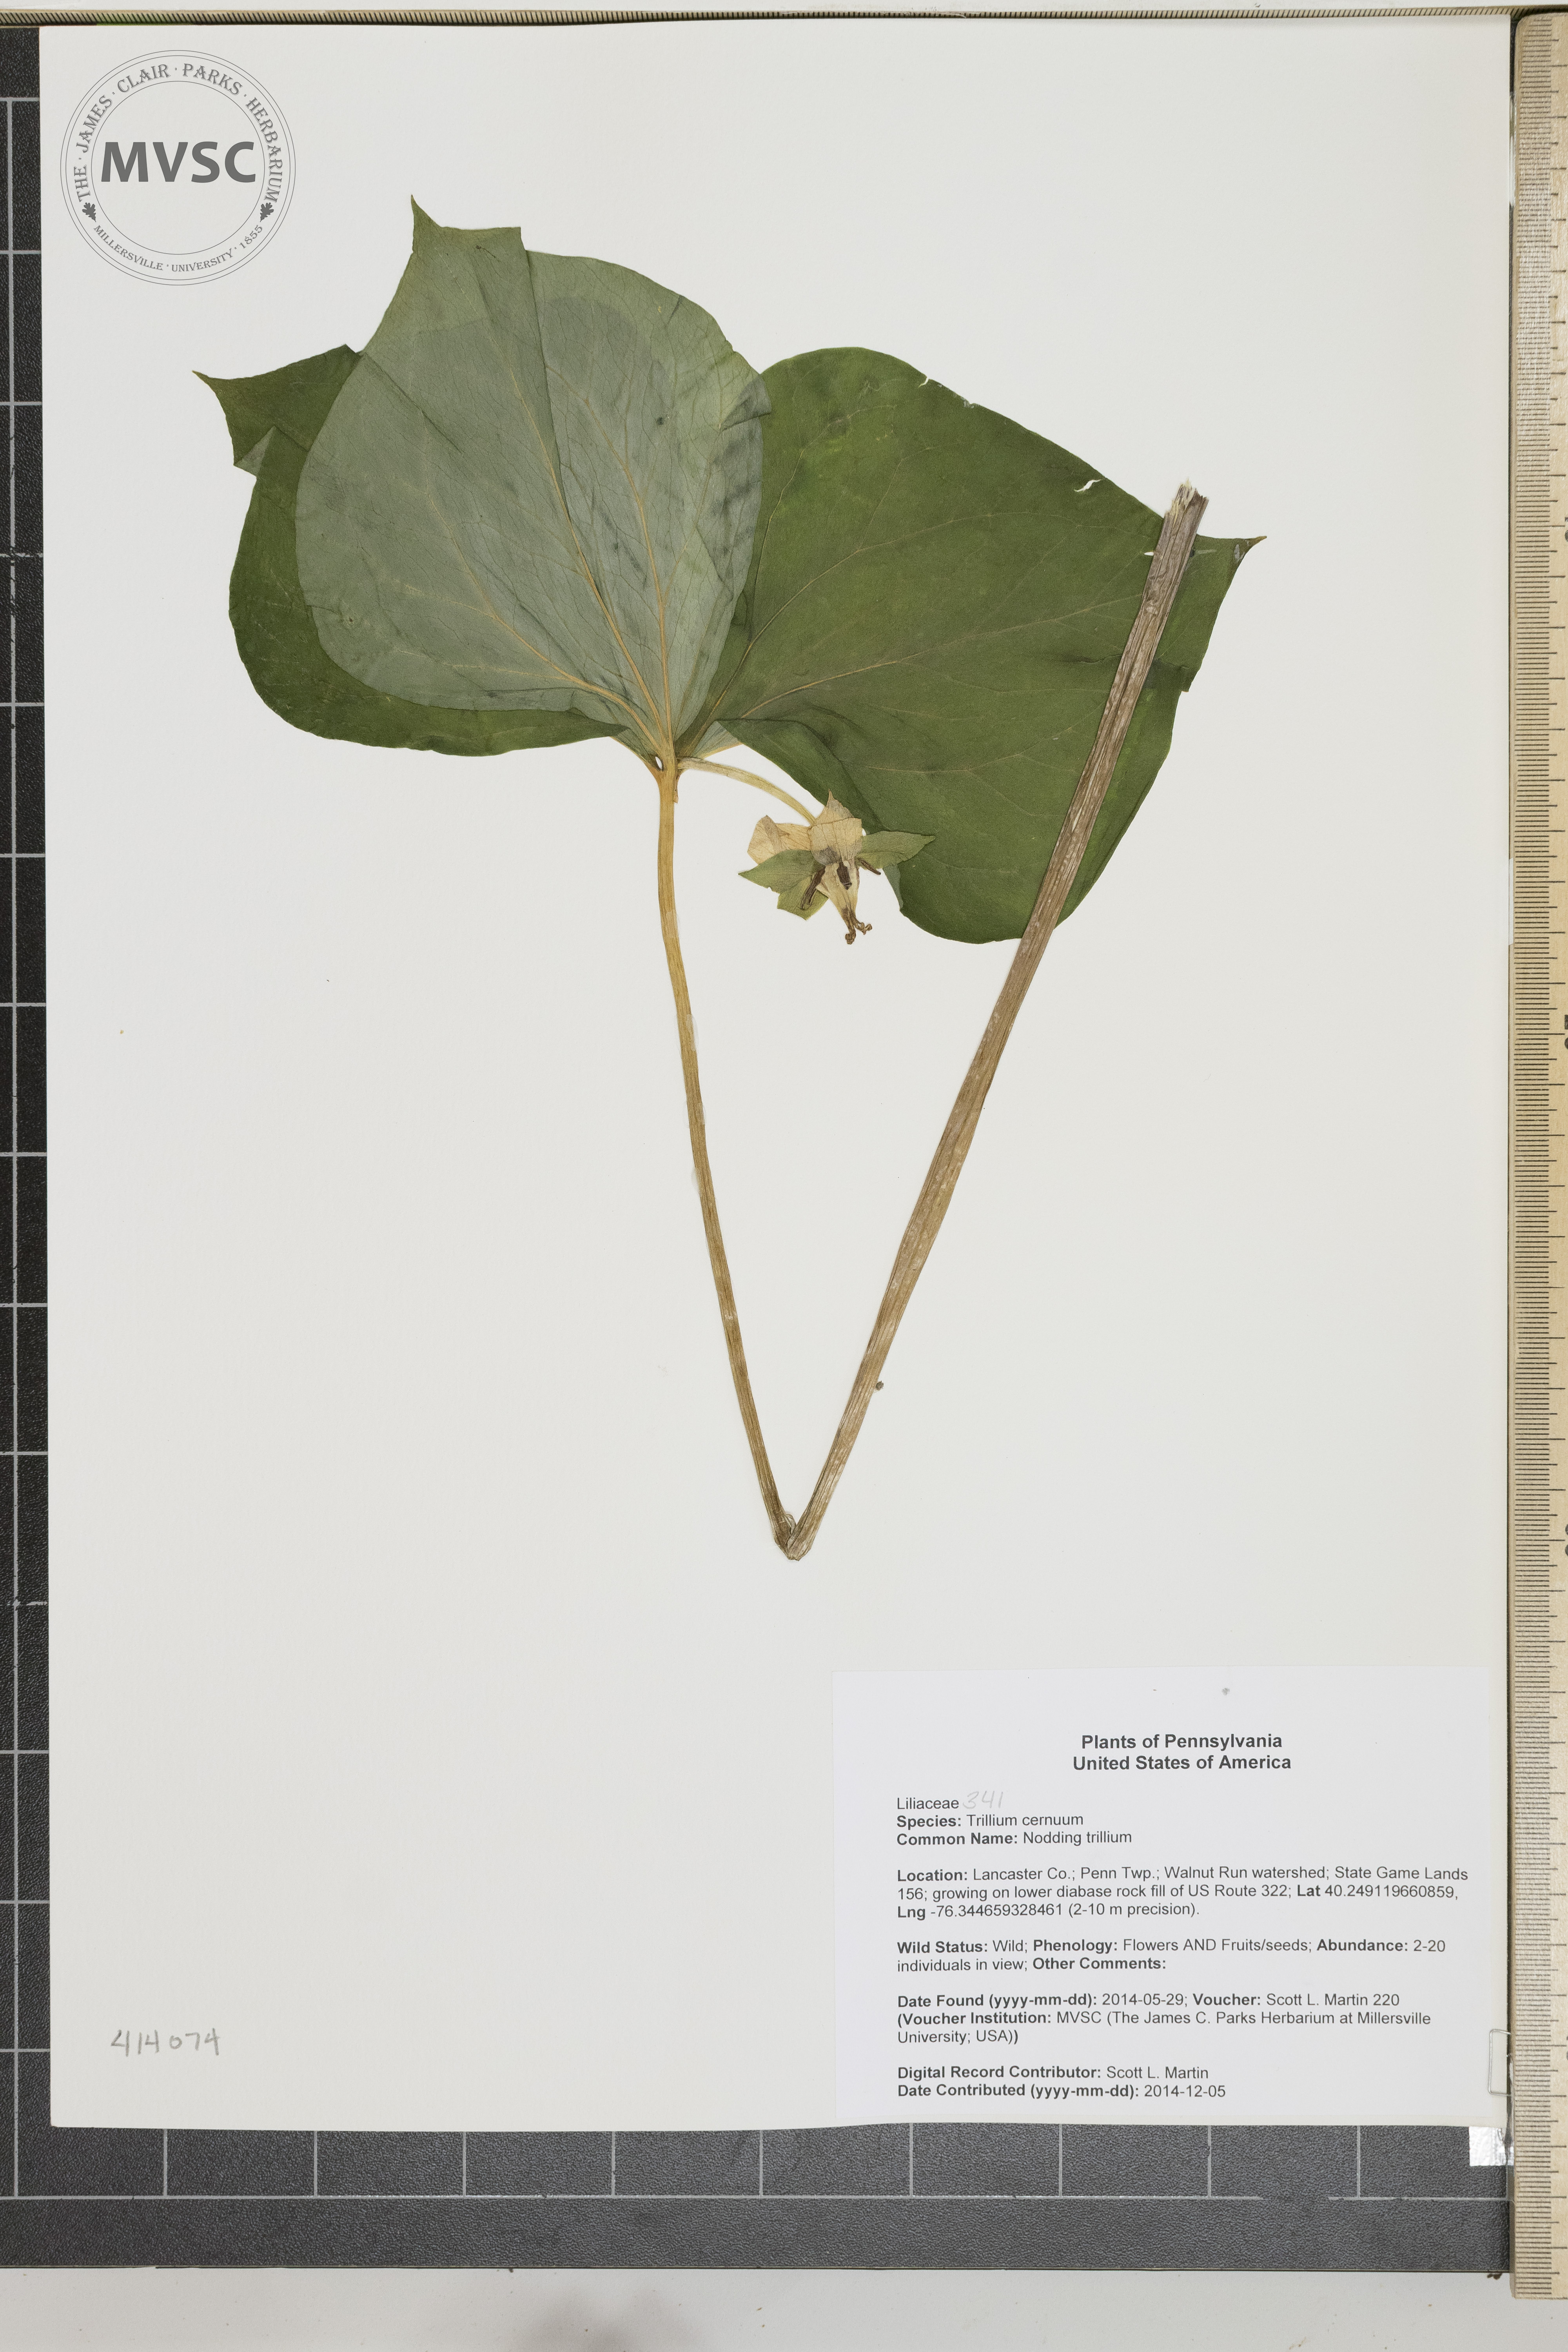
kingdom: Plantae
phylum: Tracheophyta
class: Liliopsida
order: Liliales
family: Melanthiaceae
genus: Trillium
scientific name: Trillium cernuum
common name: Nodding trillium
